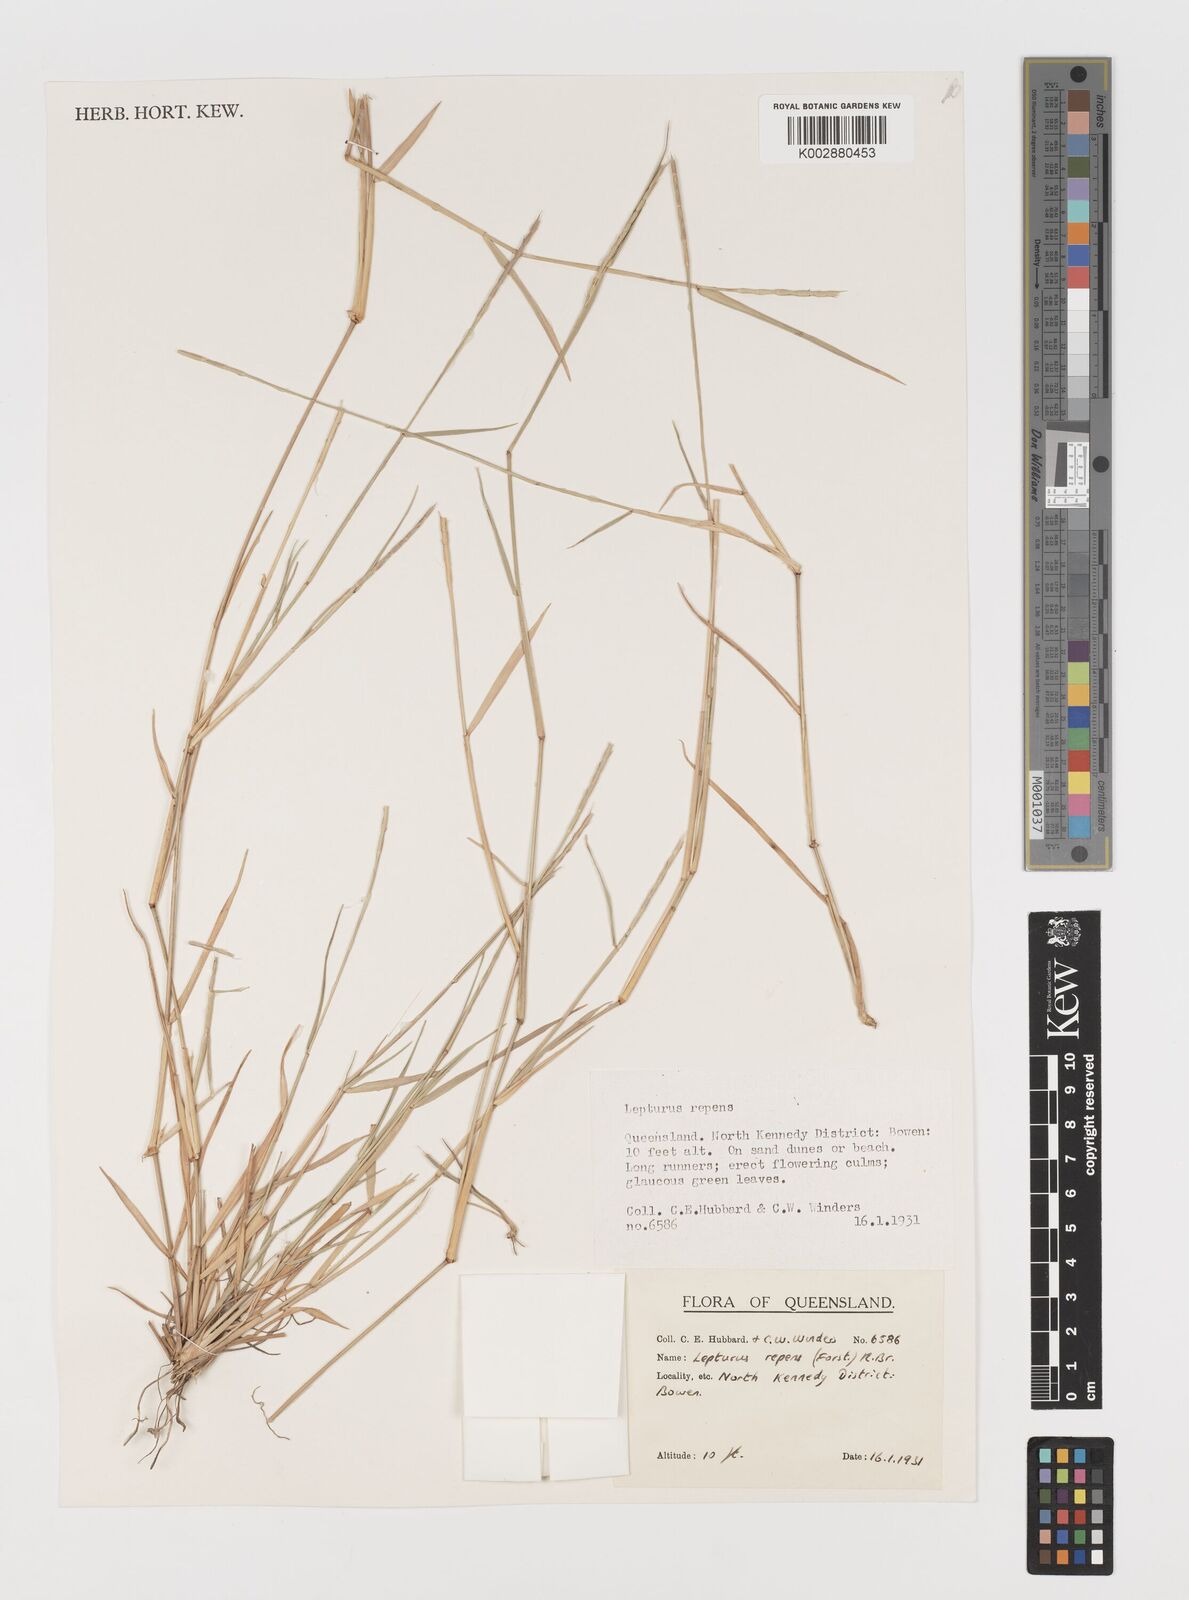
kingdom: Plantae
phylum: Tracheophyta
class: Liliopsida
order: Poales
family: Poaceae
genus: Lepturus
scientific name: Lepturus repens
